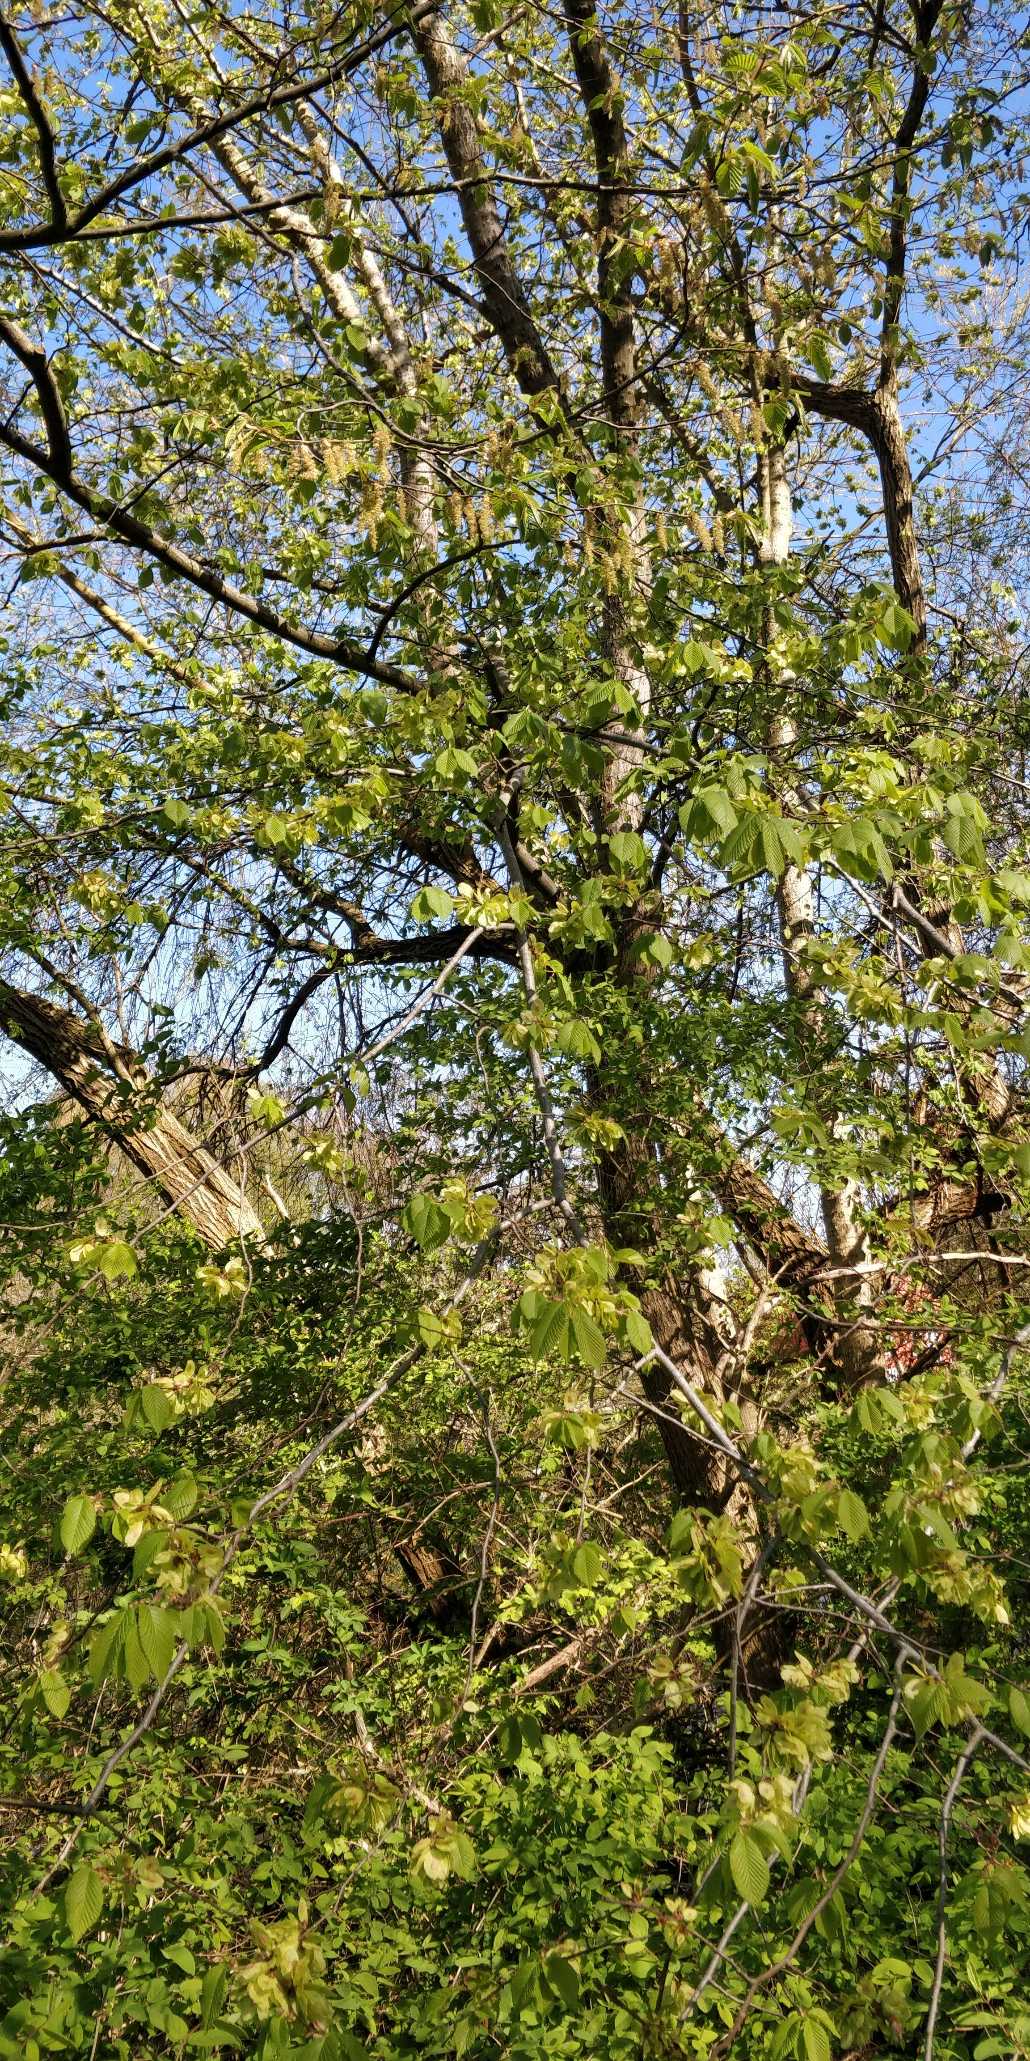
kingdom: Plantae
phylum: Tracheophyta
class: Magnoliopsida
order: Rosales
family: Ulmaceae
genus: Ulmus
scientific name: Ulmus glabra
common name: Skov-elm/storbladet elm
